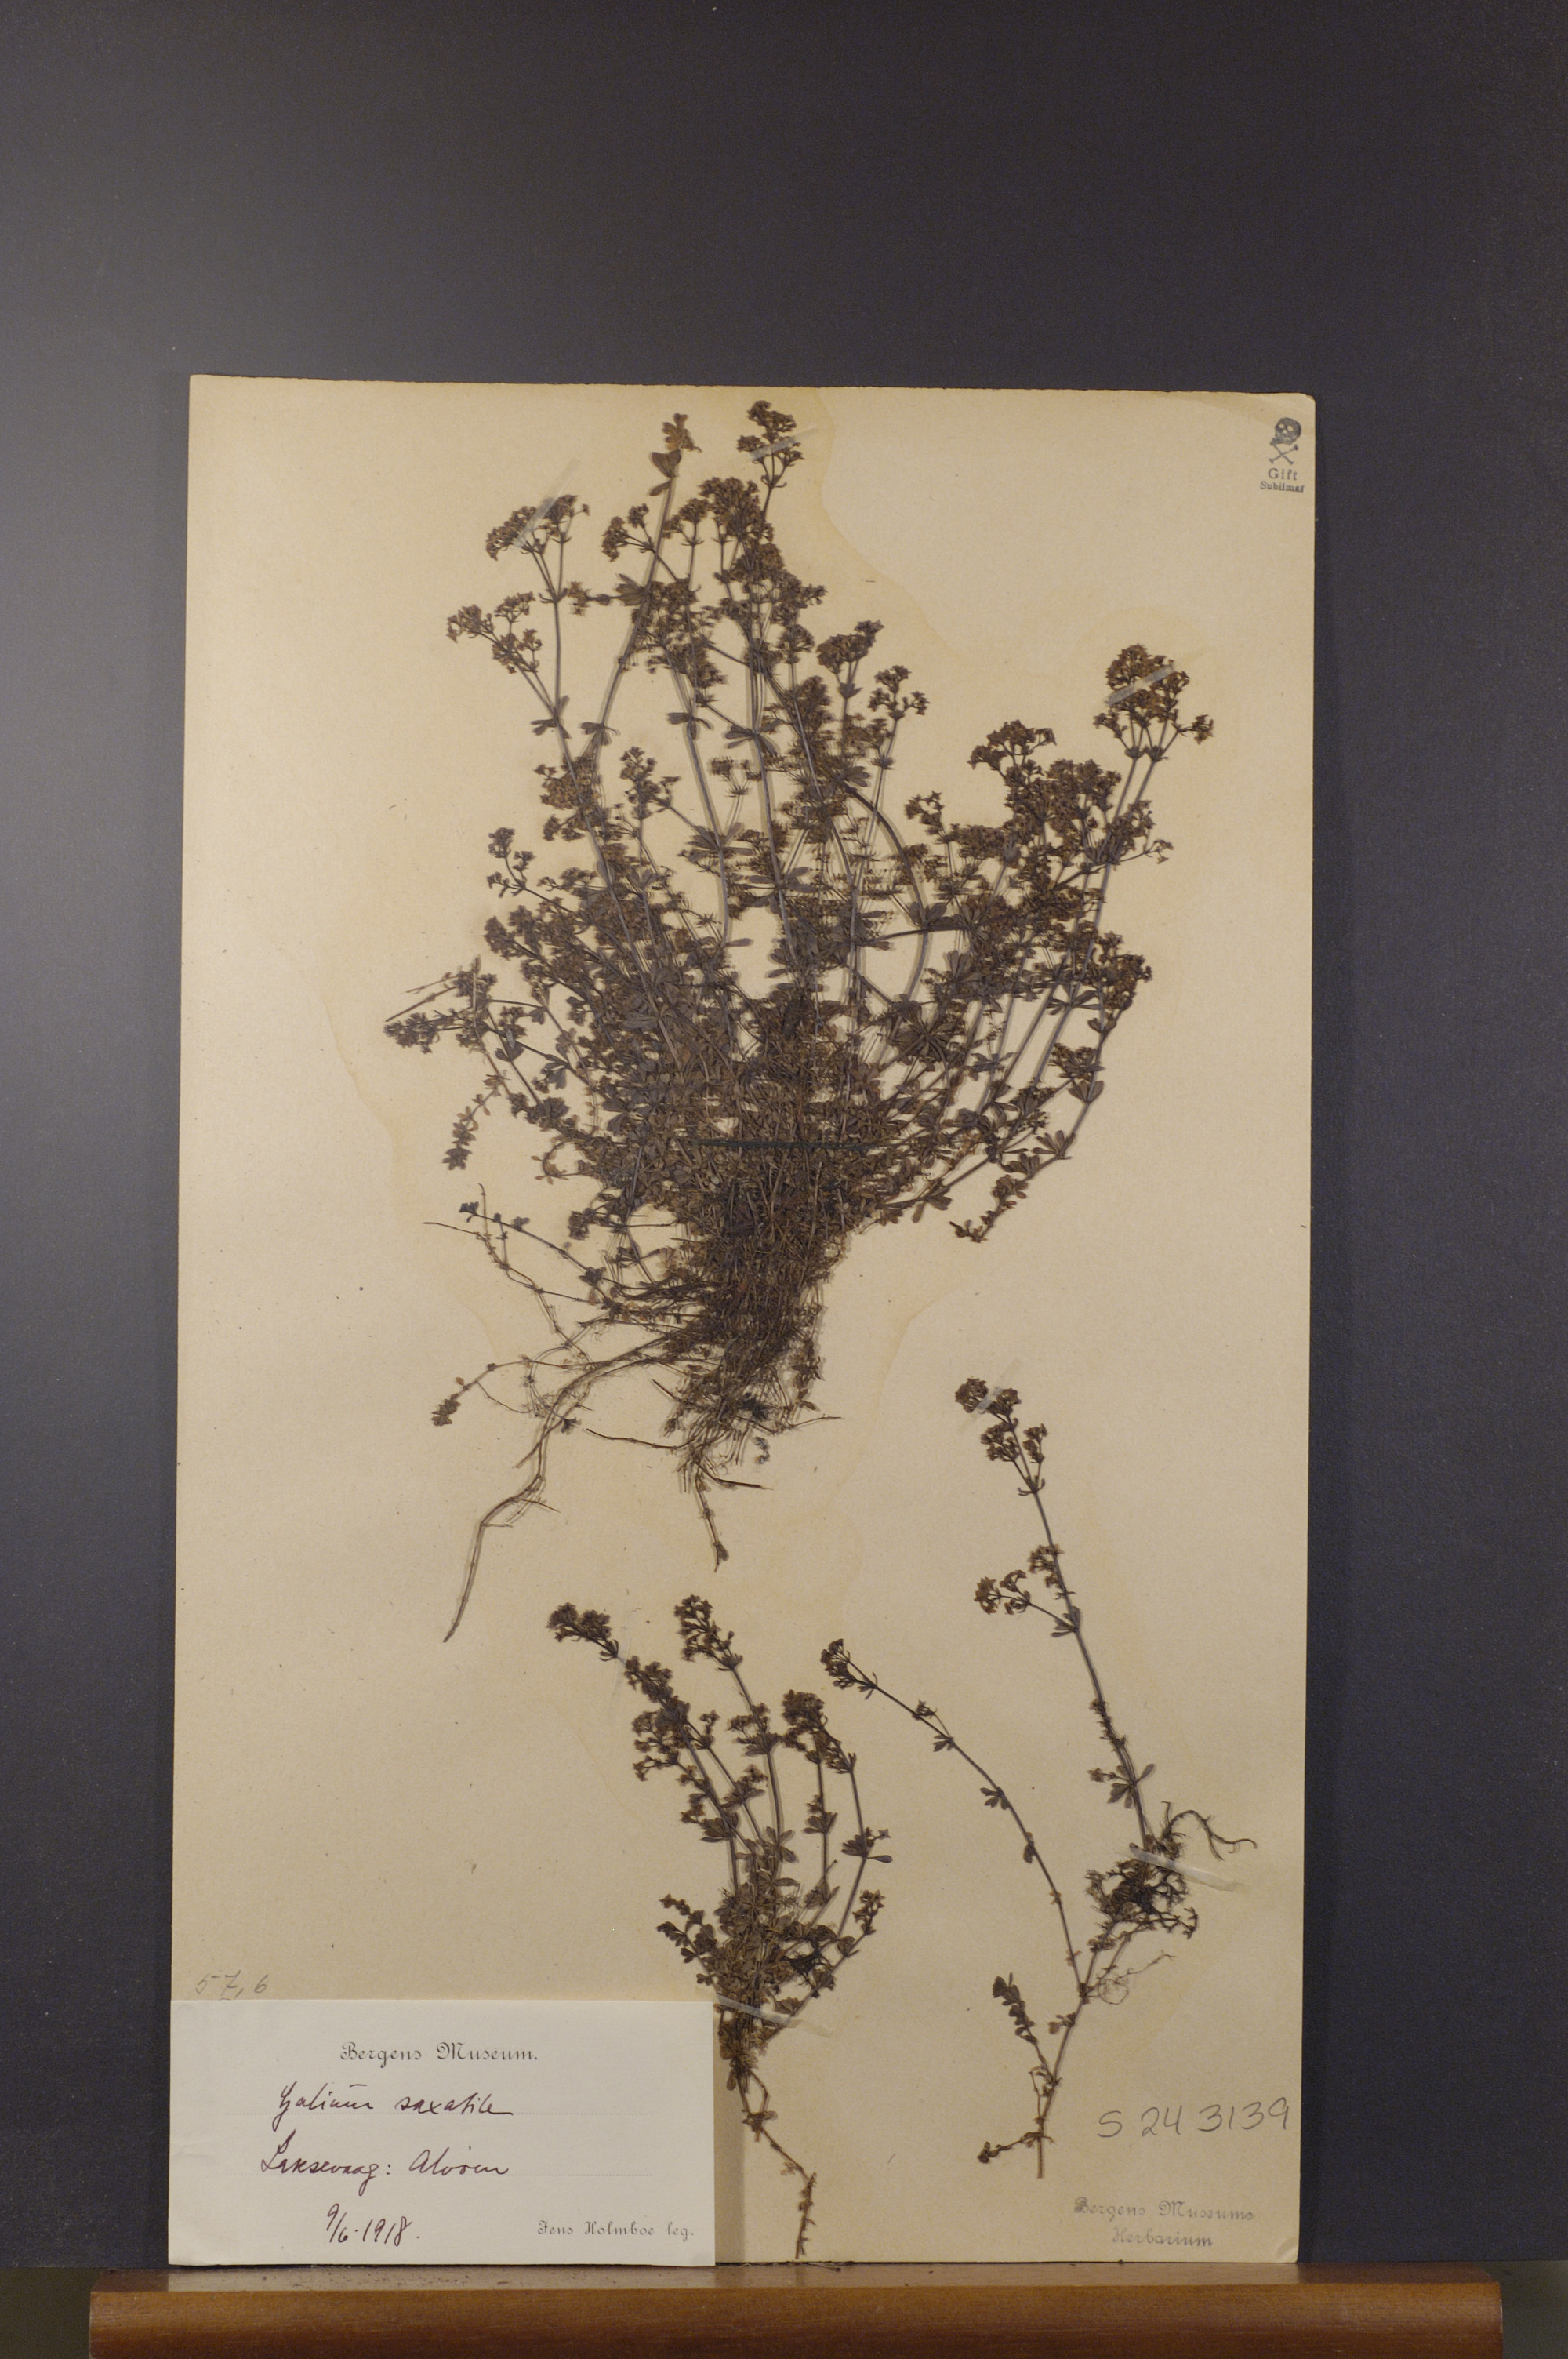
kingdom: Plantae
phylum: Tracheophyta
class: Magnoliopsida
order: Gentianales
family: Rubiaceae
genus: Galium
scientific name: Galium saxatile
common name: Heath bedstraw
